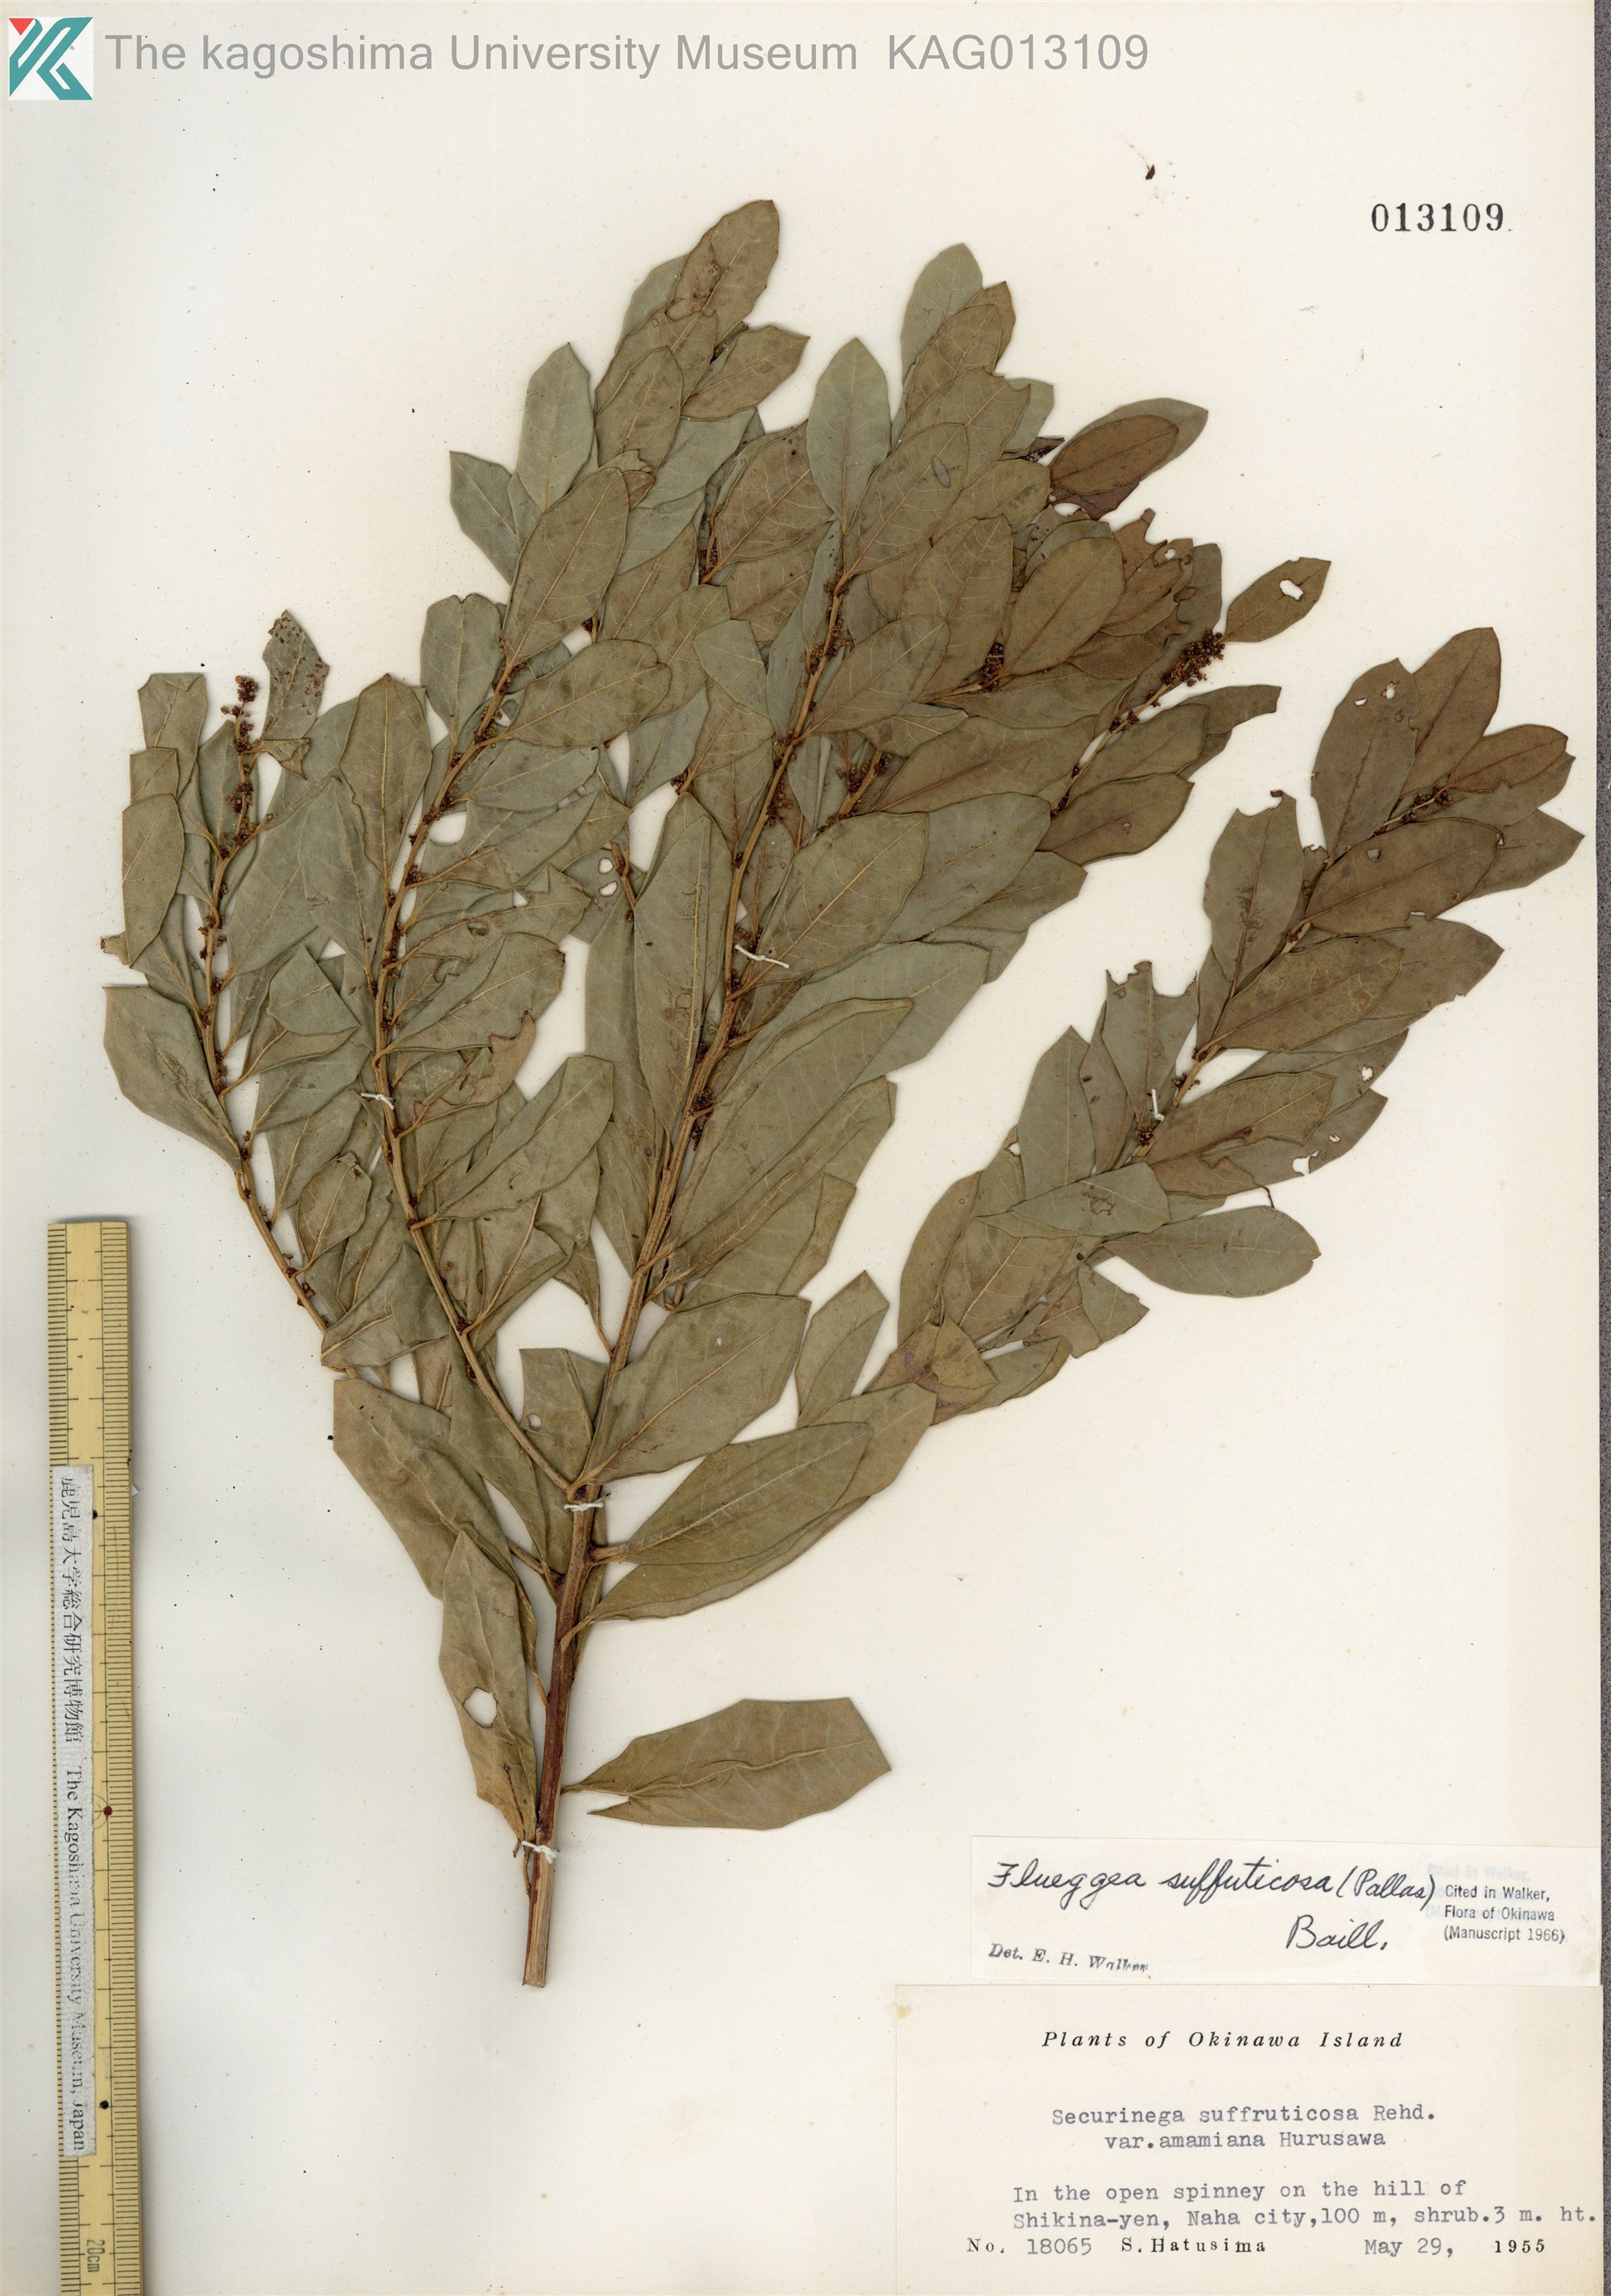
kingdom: Plantae
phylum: Tracheophyta
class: Magnoliopsida
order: Malpighiales
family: Phyllanthaceae
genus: Flueggea
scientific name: Flueggea suffruticosa
